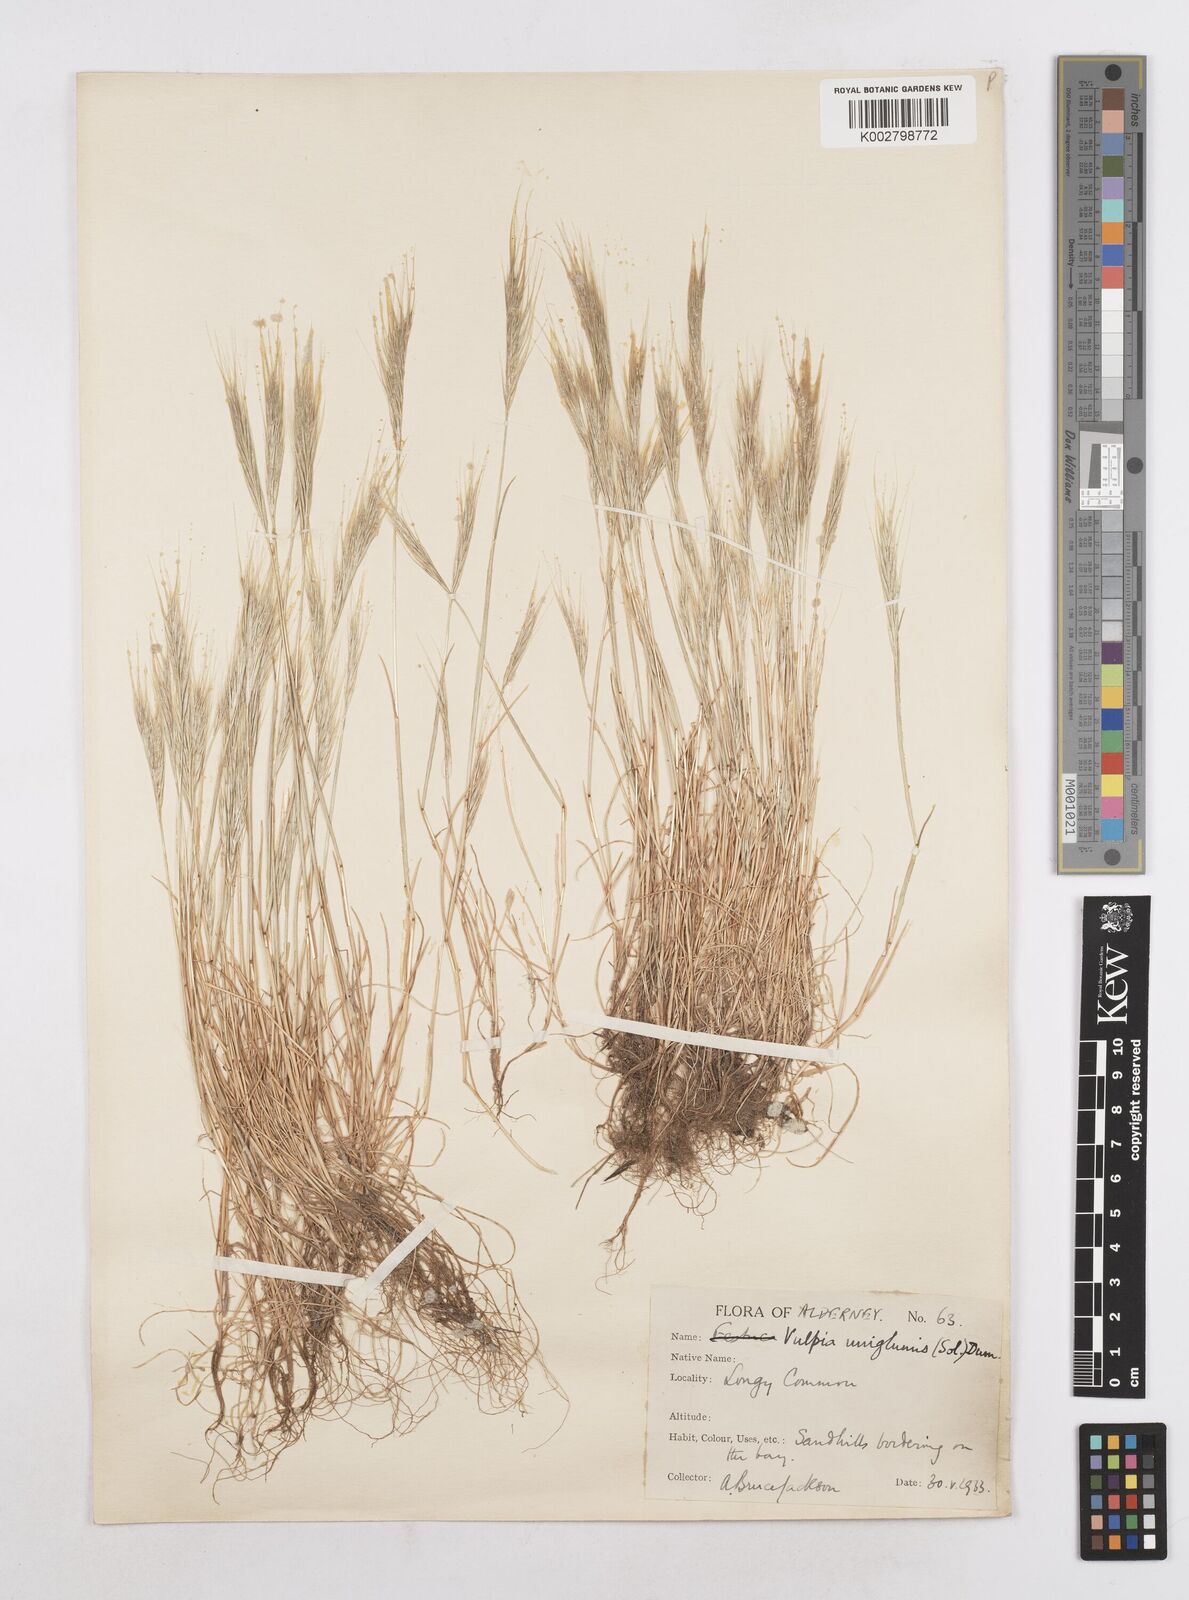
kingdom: Plantae
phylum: Tracheophyta
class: Liliopsida
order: Poales
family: Poaceae
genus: Festuca
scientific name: Festuca fasciculata
